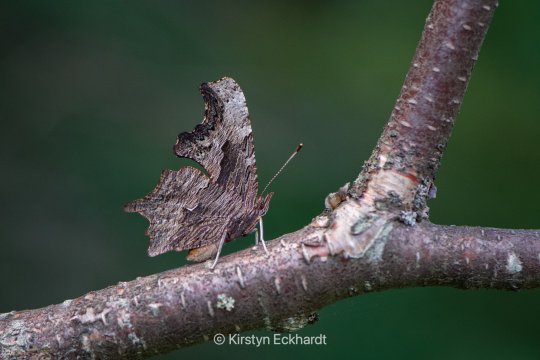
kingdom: Animalia
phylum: Arthropoda
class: Insecta
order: Lepidoptera
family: Nymphalidae
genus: Polygonia
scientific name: Polygonia progne
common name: Gray Comma
